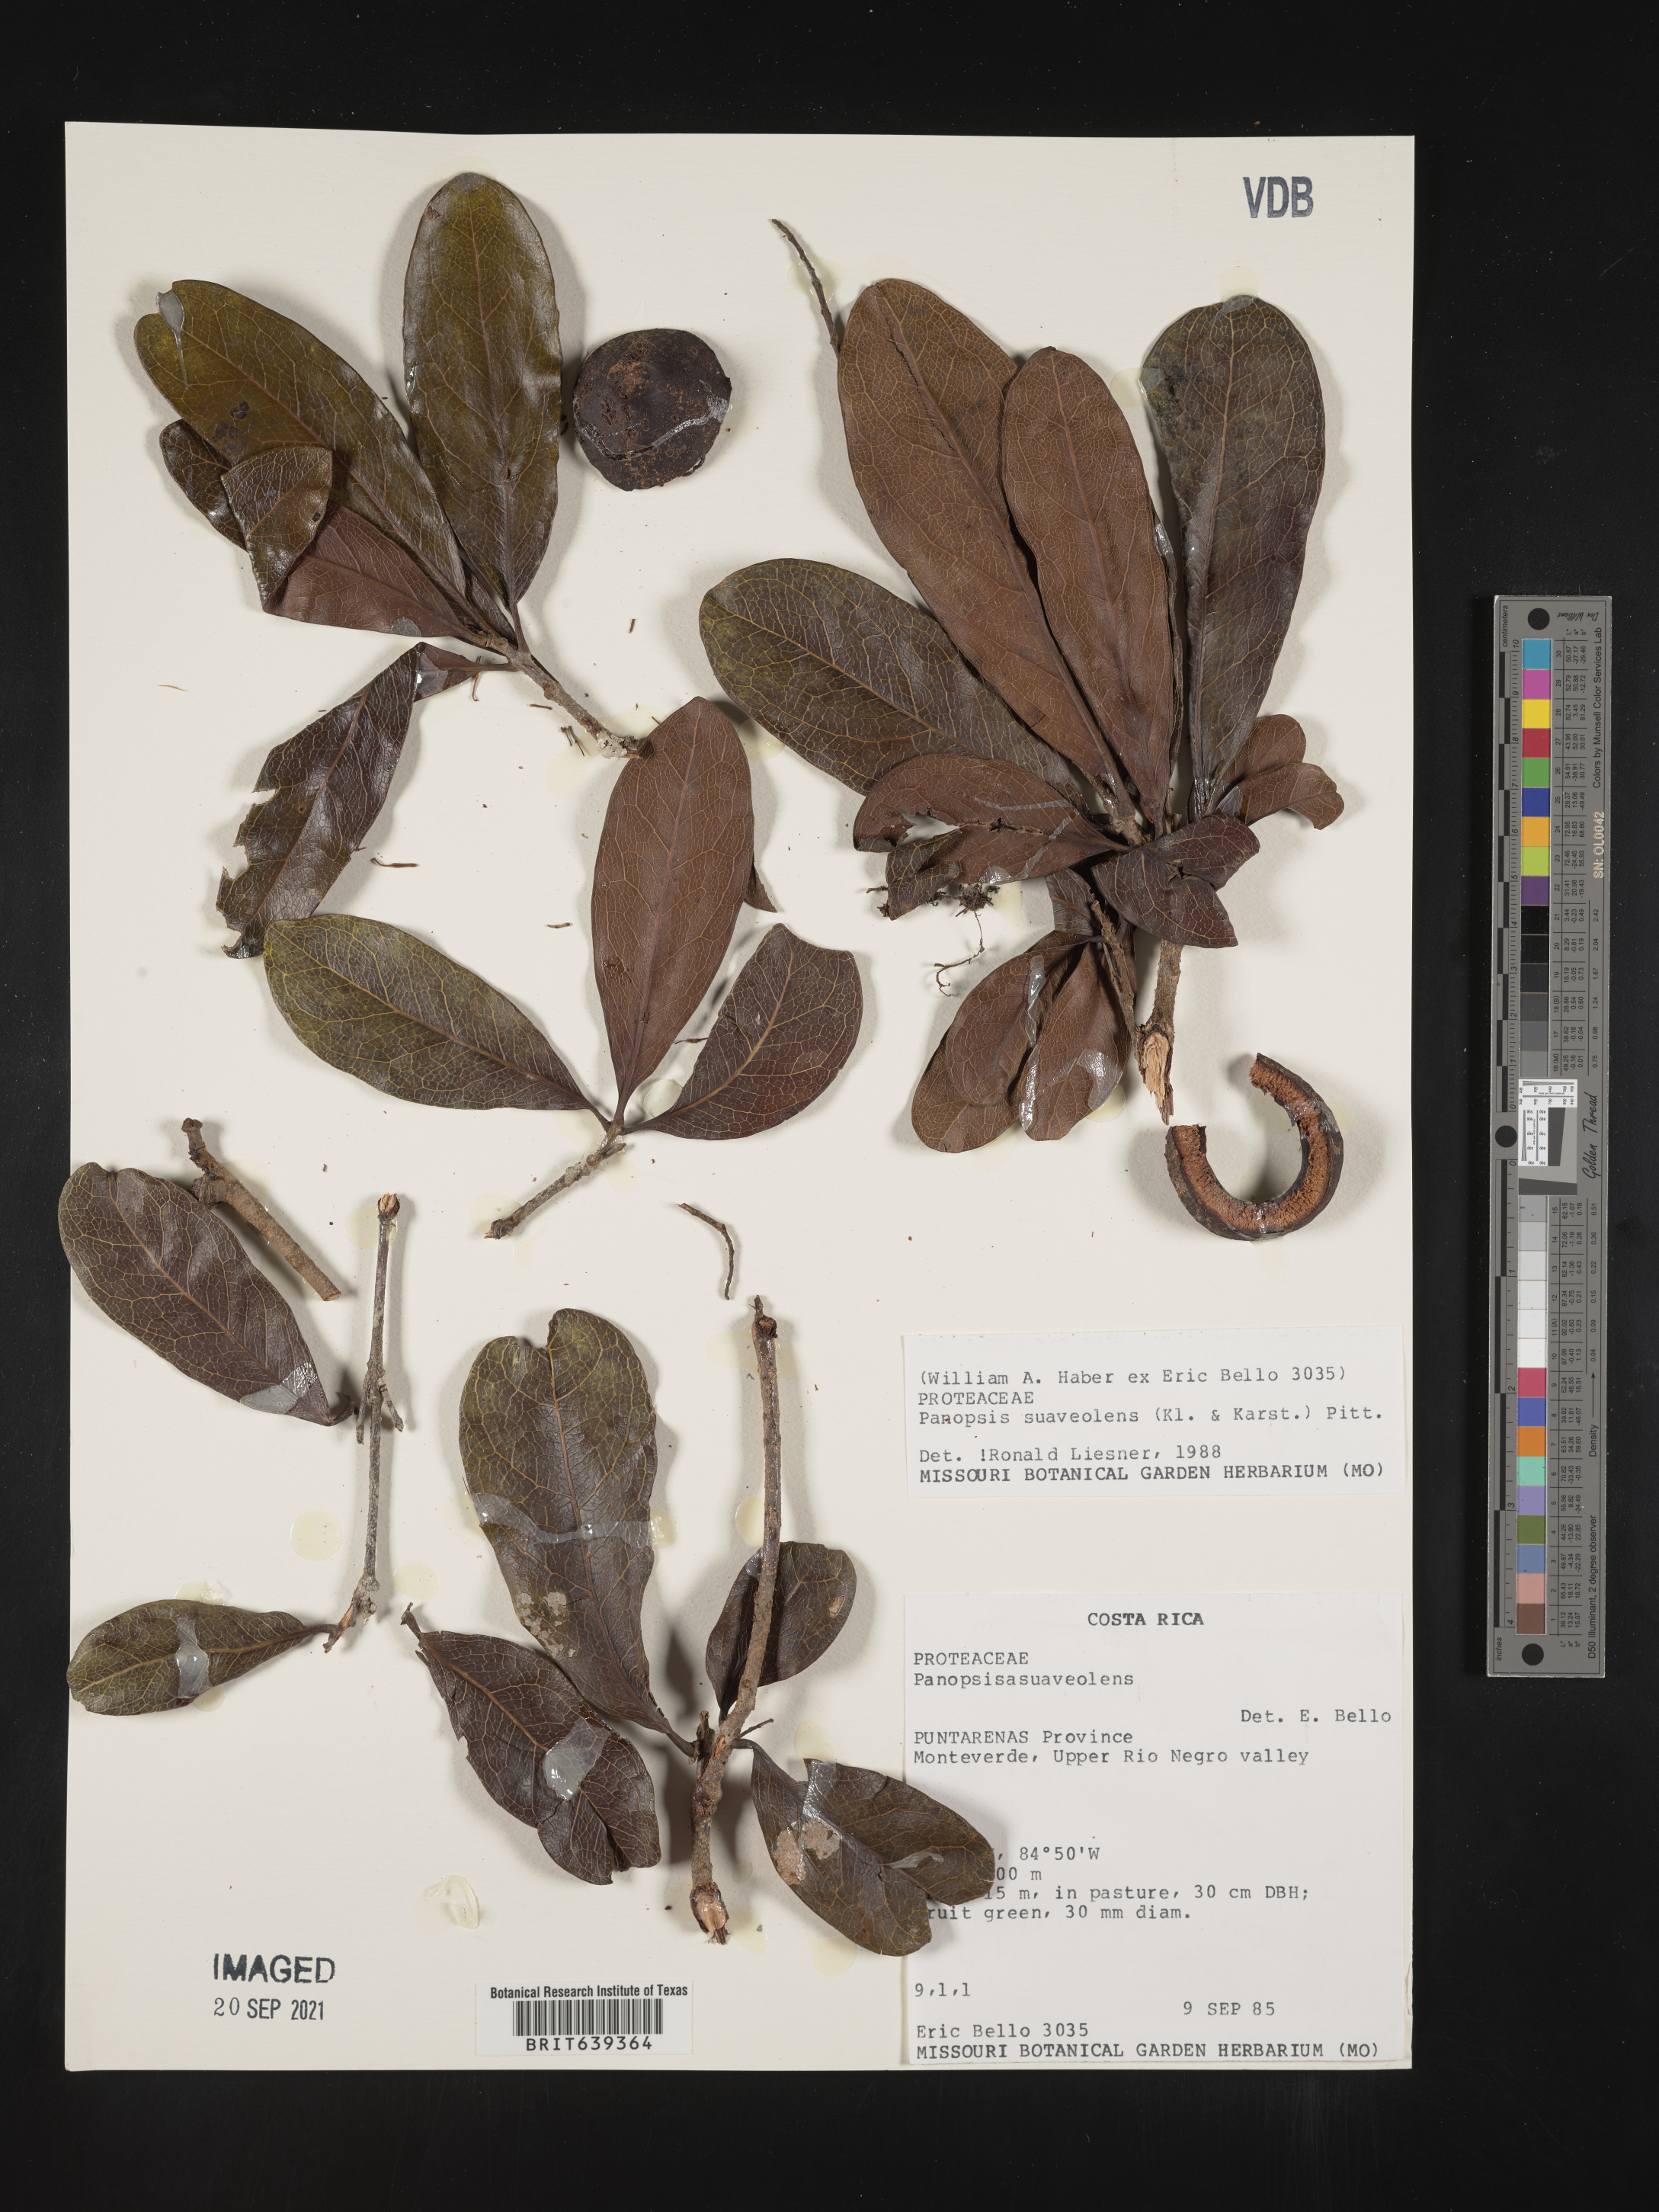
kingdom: Plantae
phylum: Tracheophyta
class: Magnoliopsida
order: Proteales
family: Proteaceae
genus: Panopsis
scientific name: Panopsis
